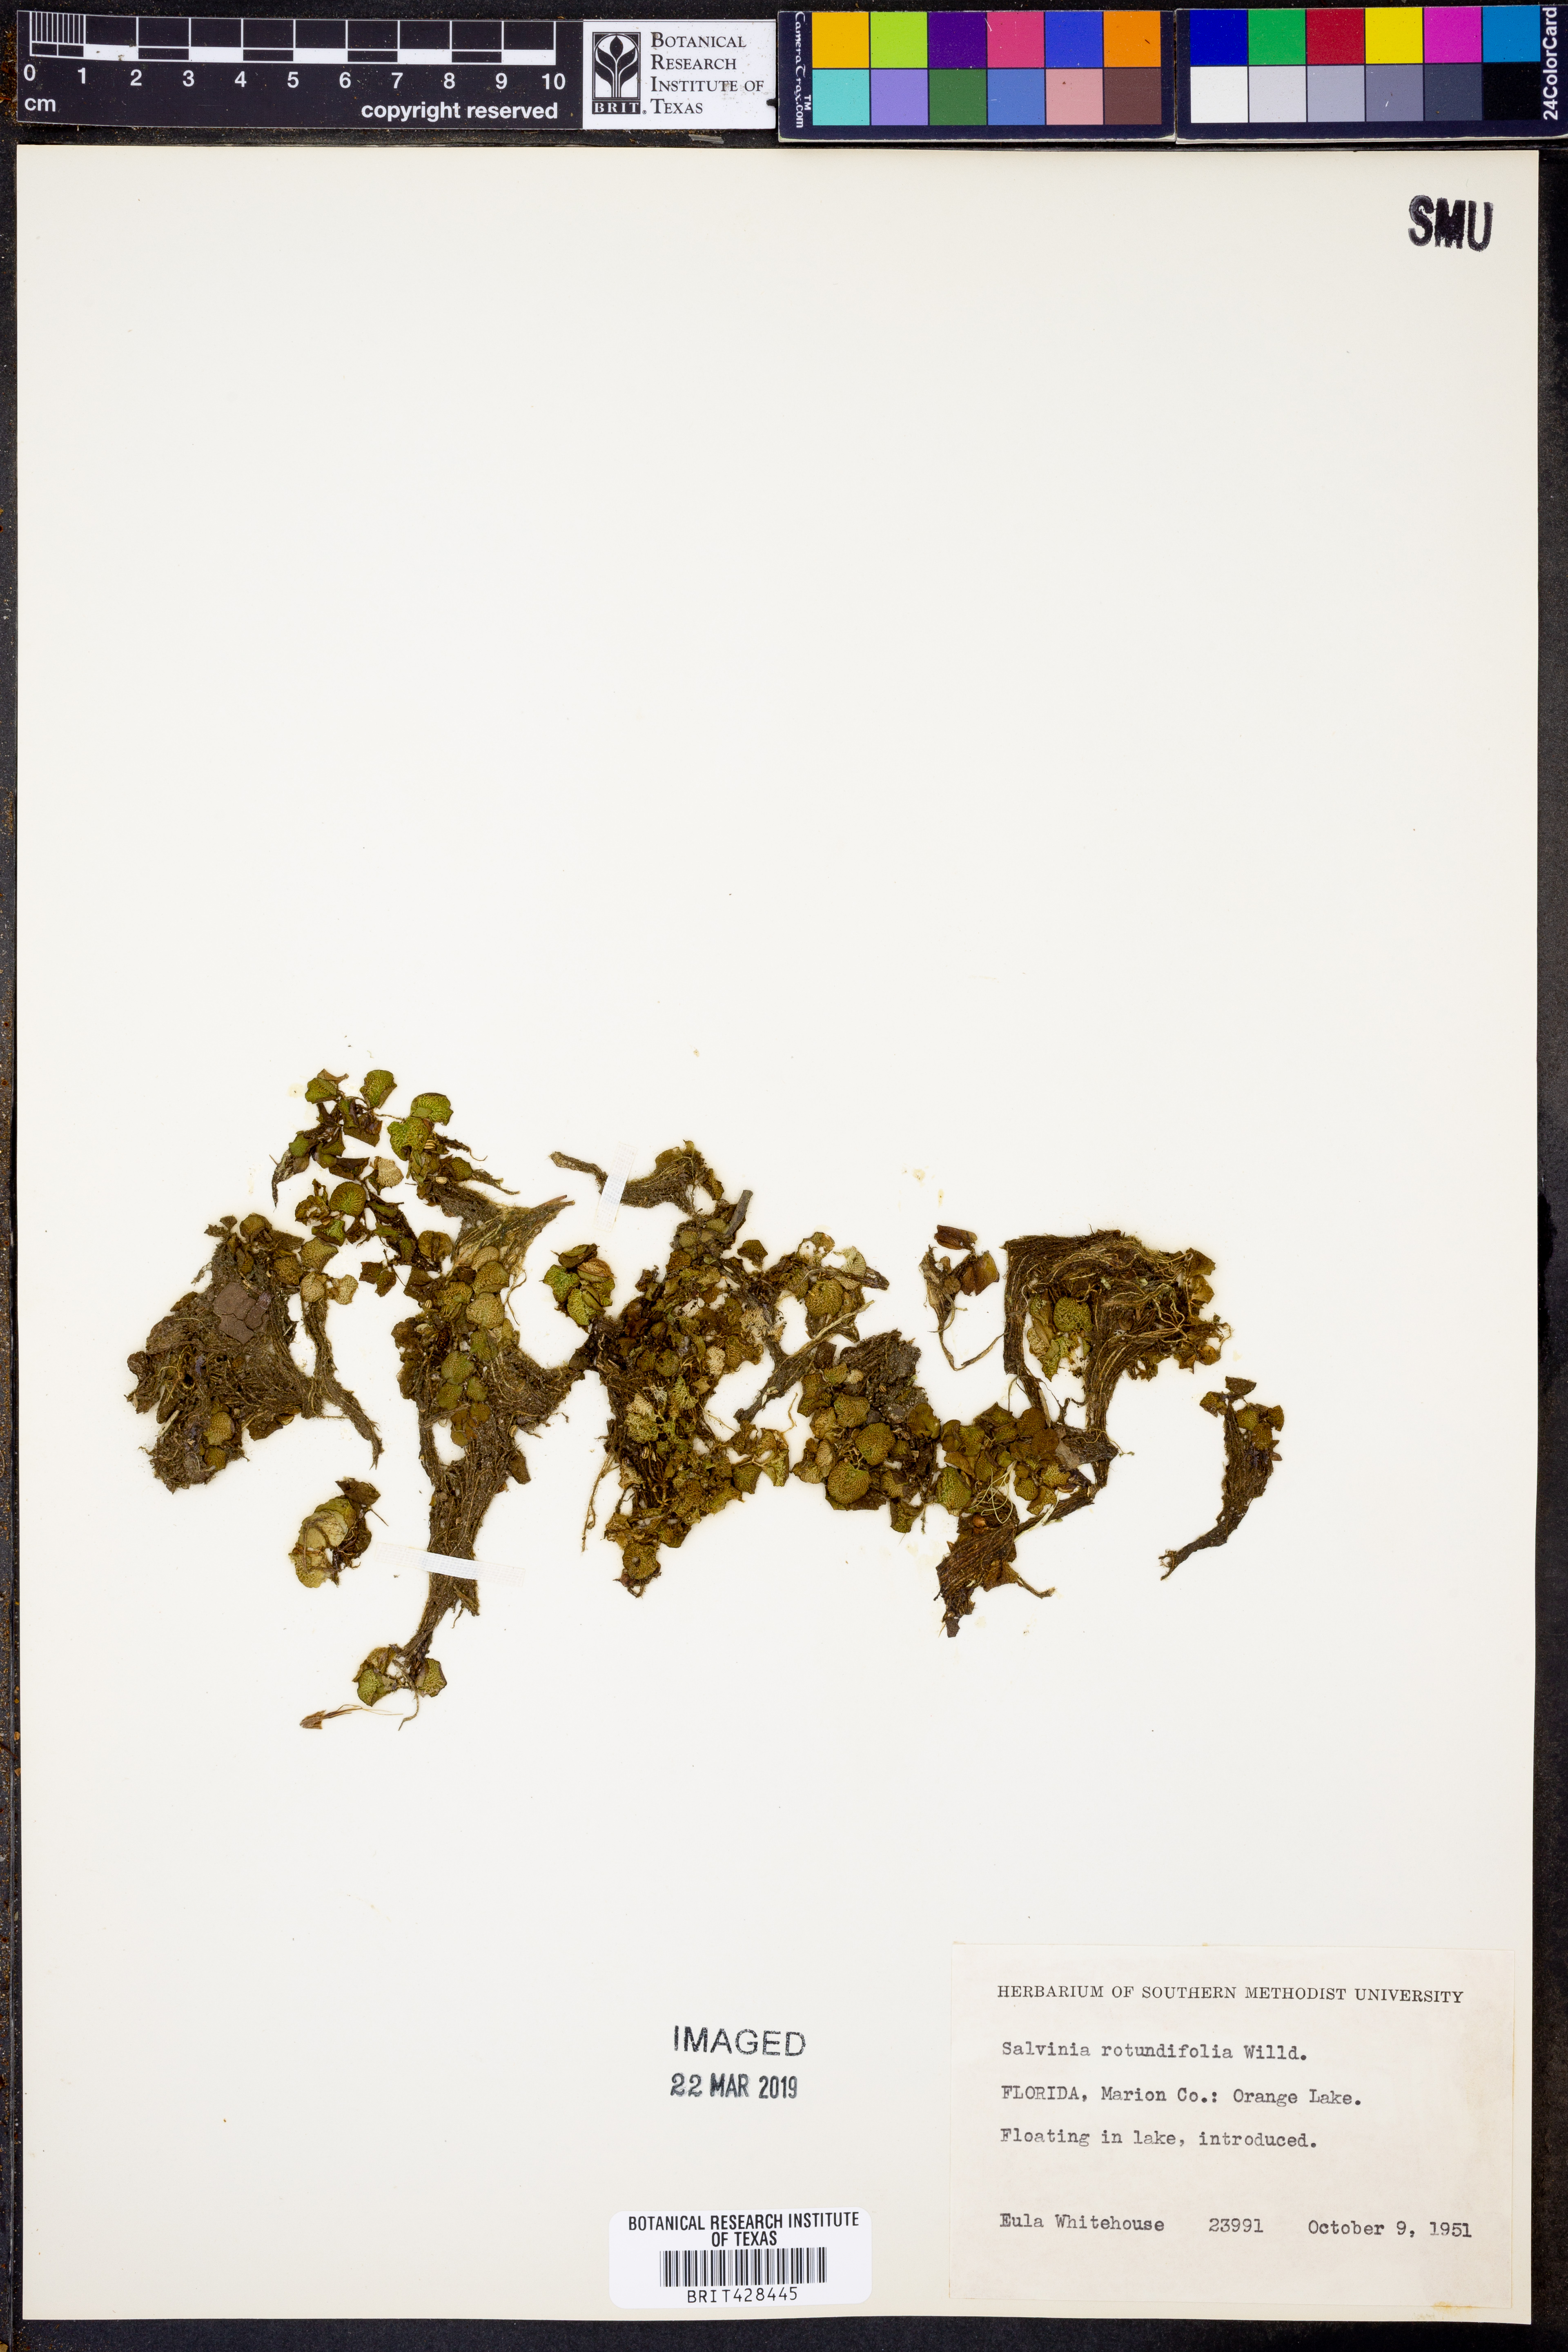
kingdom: Plantae
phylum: Tracheophyta
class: Polypodiopsida
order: Salviniales
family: Salviniaceae
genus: Salvinia
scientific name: Salvinia auriculata
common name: African payal
